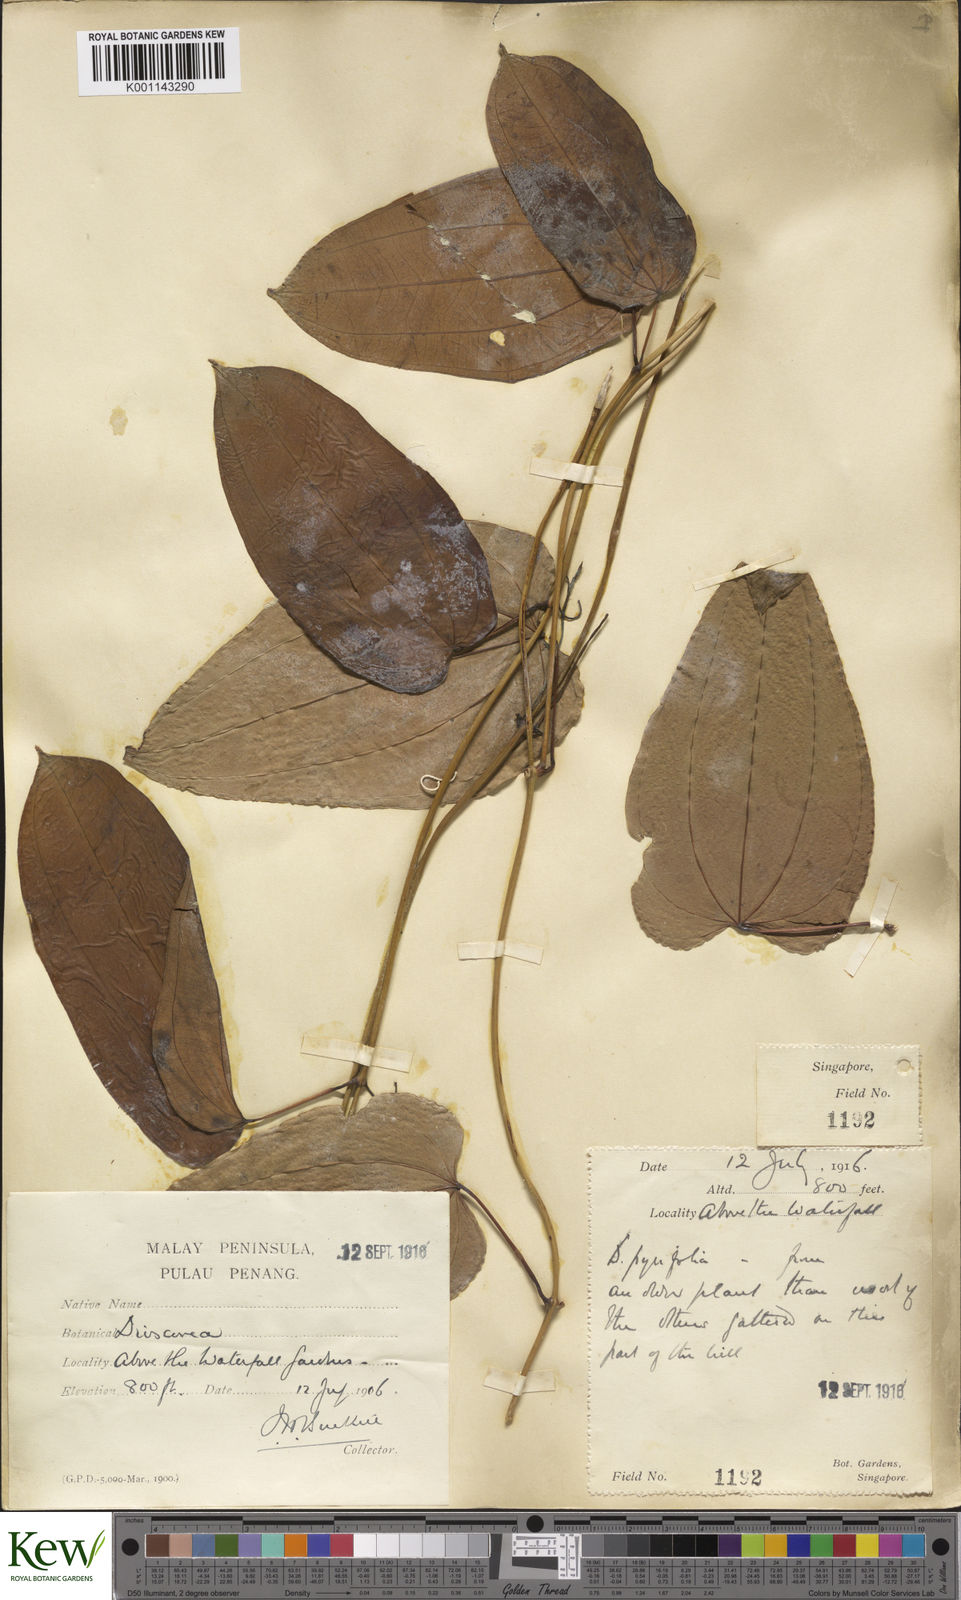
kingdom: Plantae
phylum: Tracheophyta
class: Liliopsida
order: Dioscoreales
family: Dioscoreaceae
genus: Dioscorea
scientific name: Dioscorea glabra
